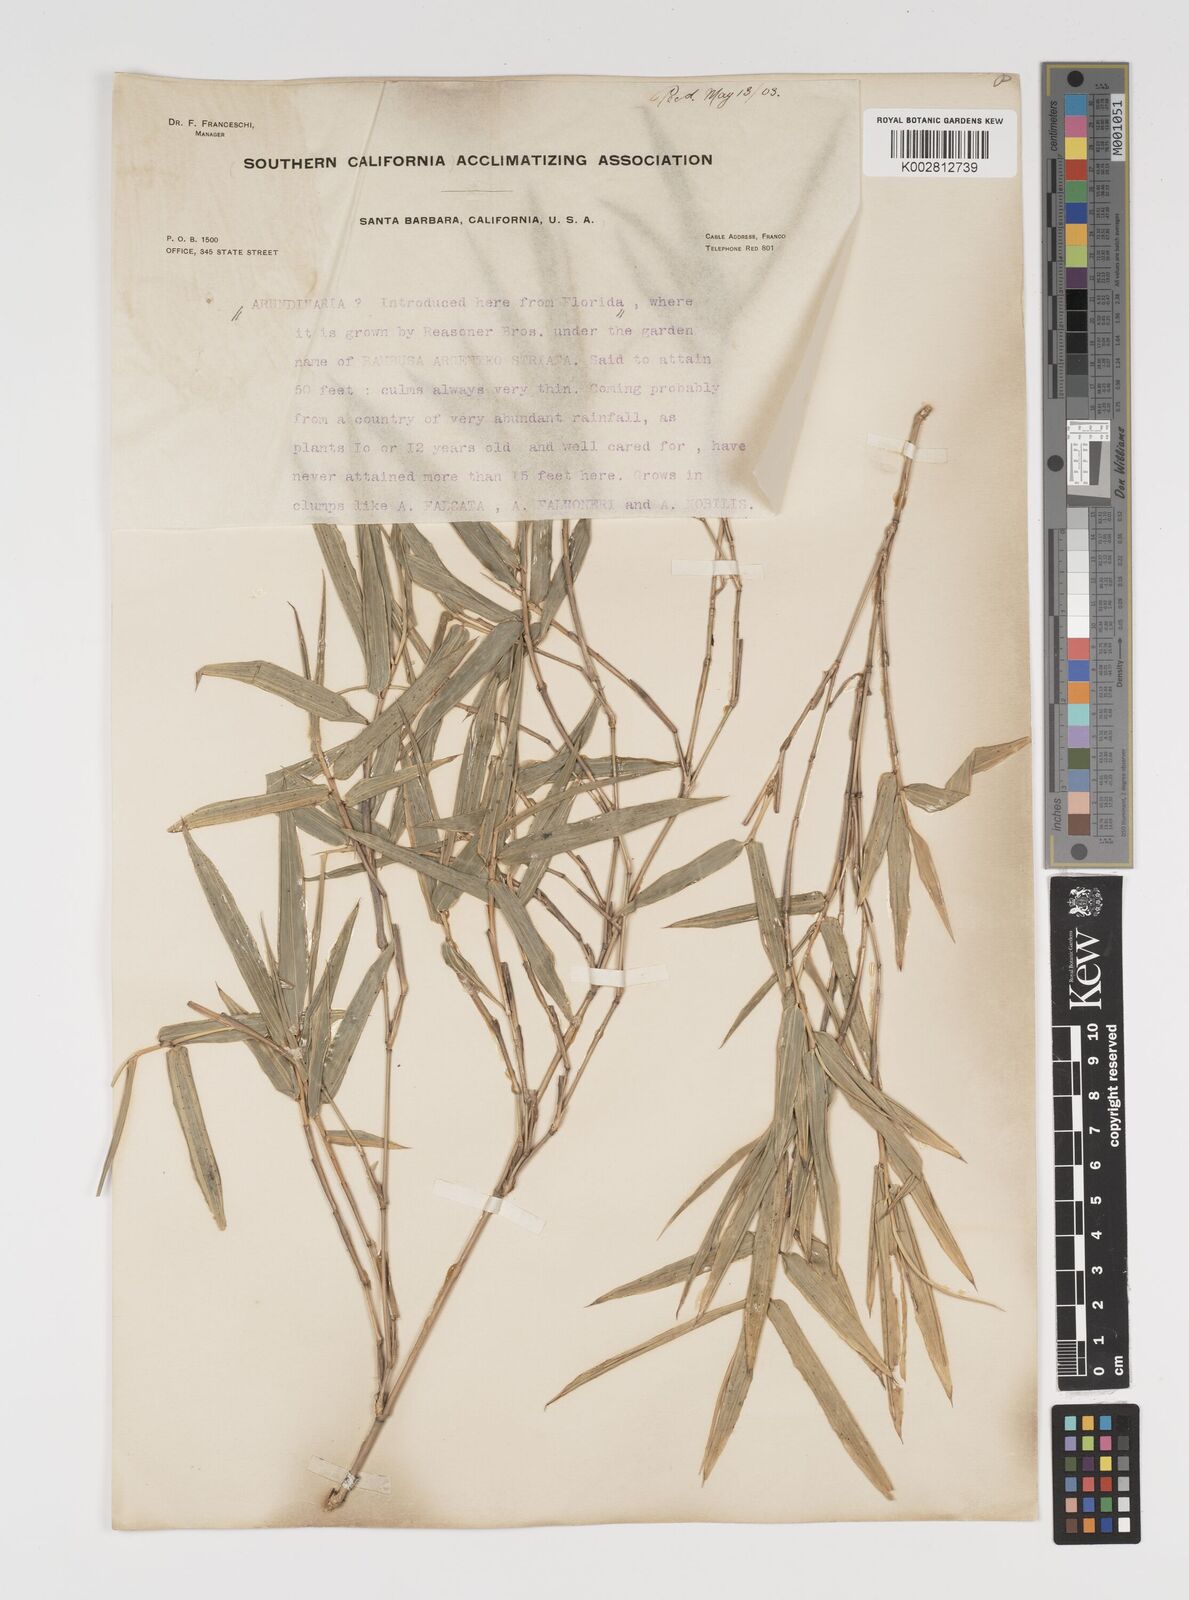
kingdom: Plantae
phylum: Tracheophyta
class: Liliopsida
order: Poales
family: Poaceae
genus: Arundinaria
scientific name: Arundinaria
